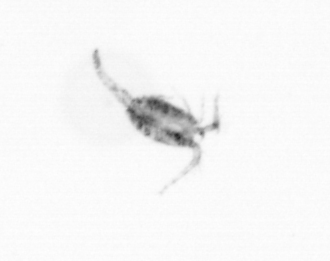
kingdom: Animalia
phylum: Arthropoda
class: Copepoda
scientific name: Copepoda
